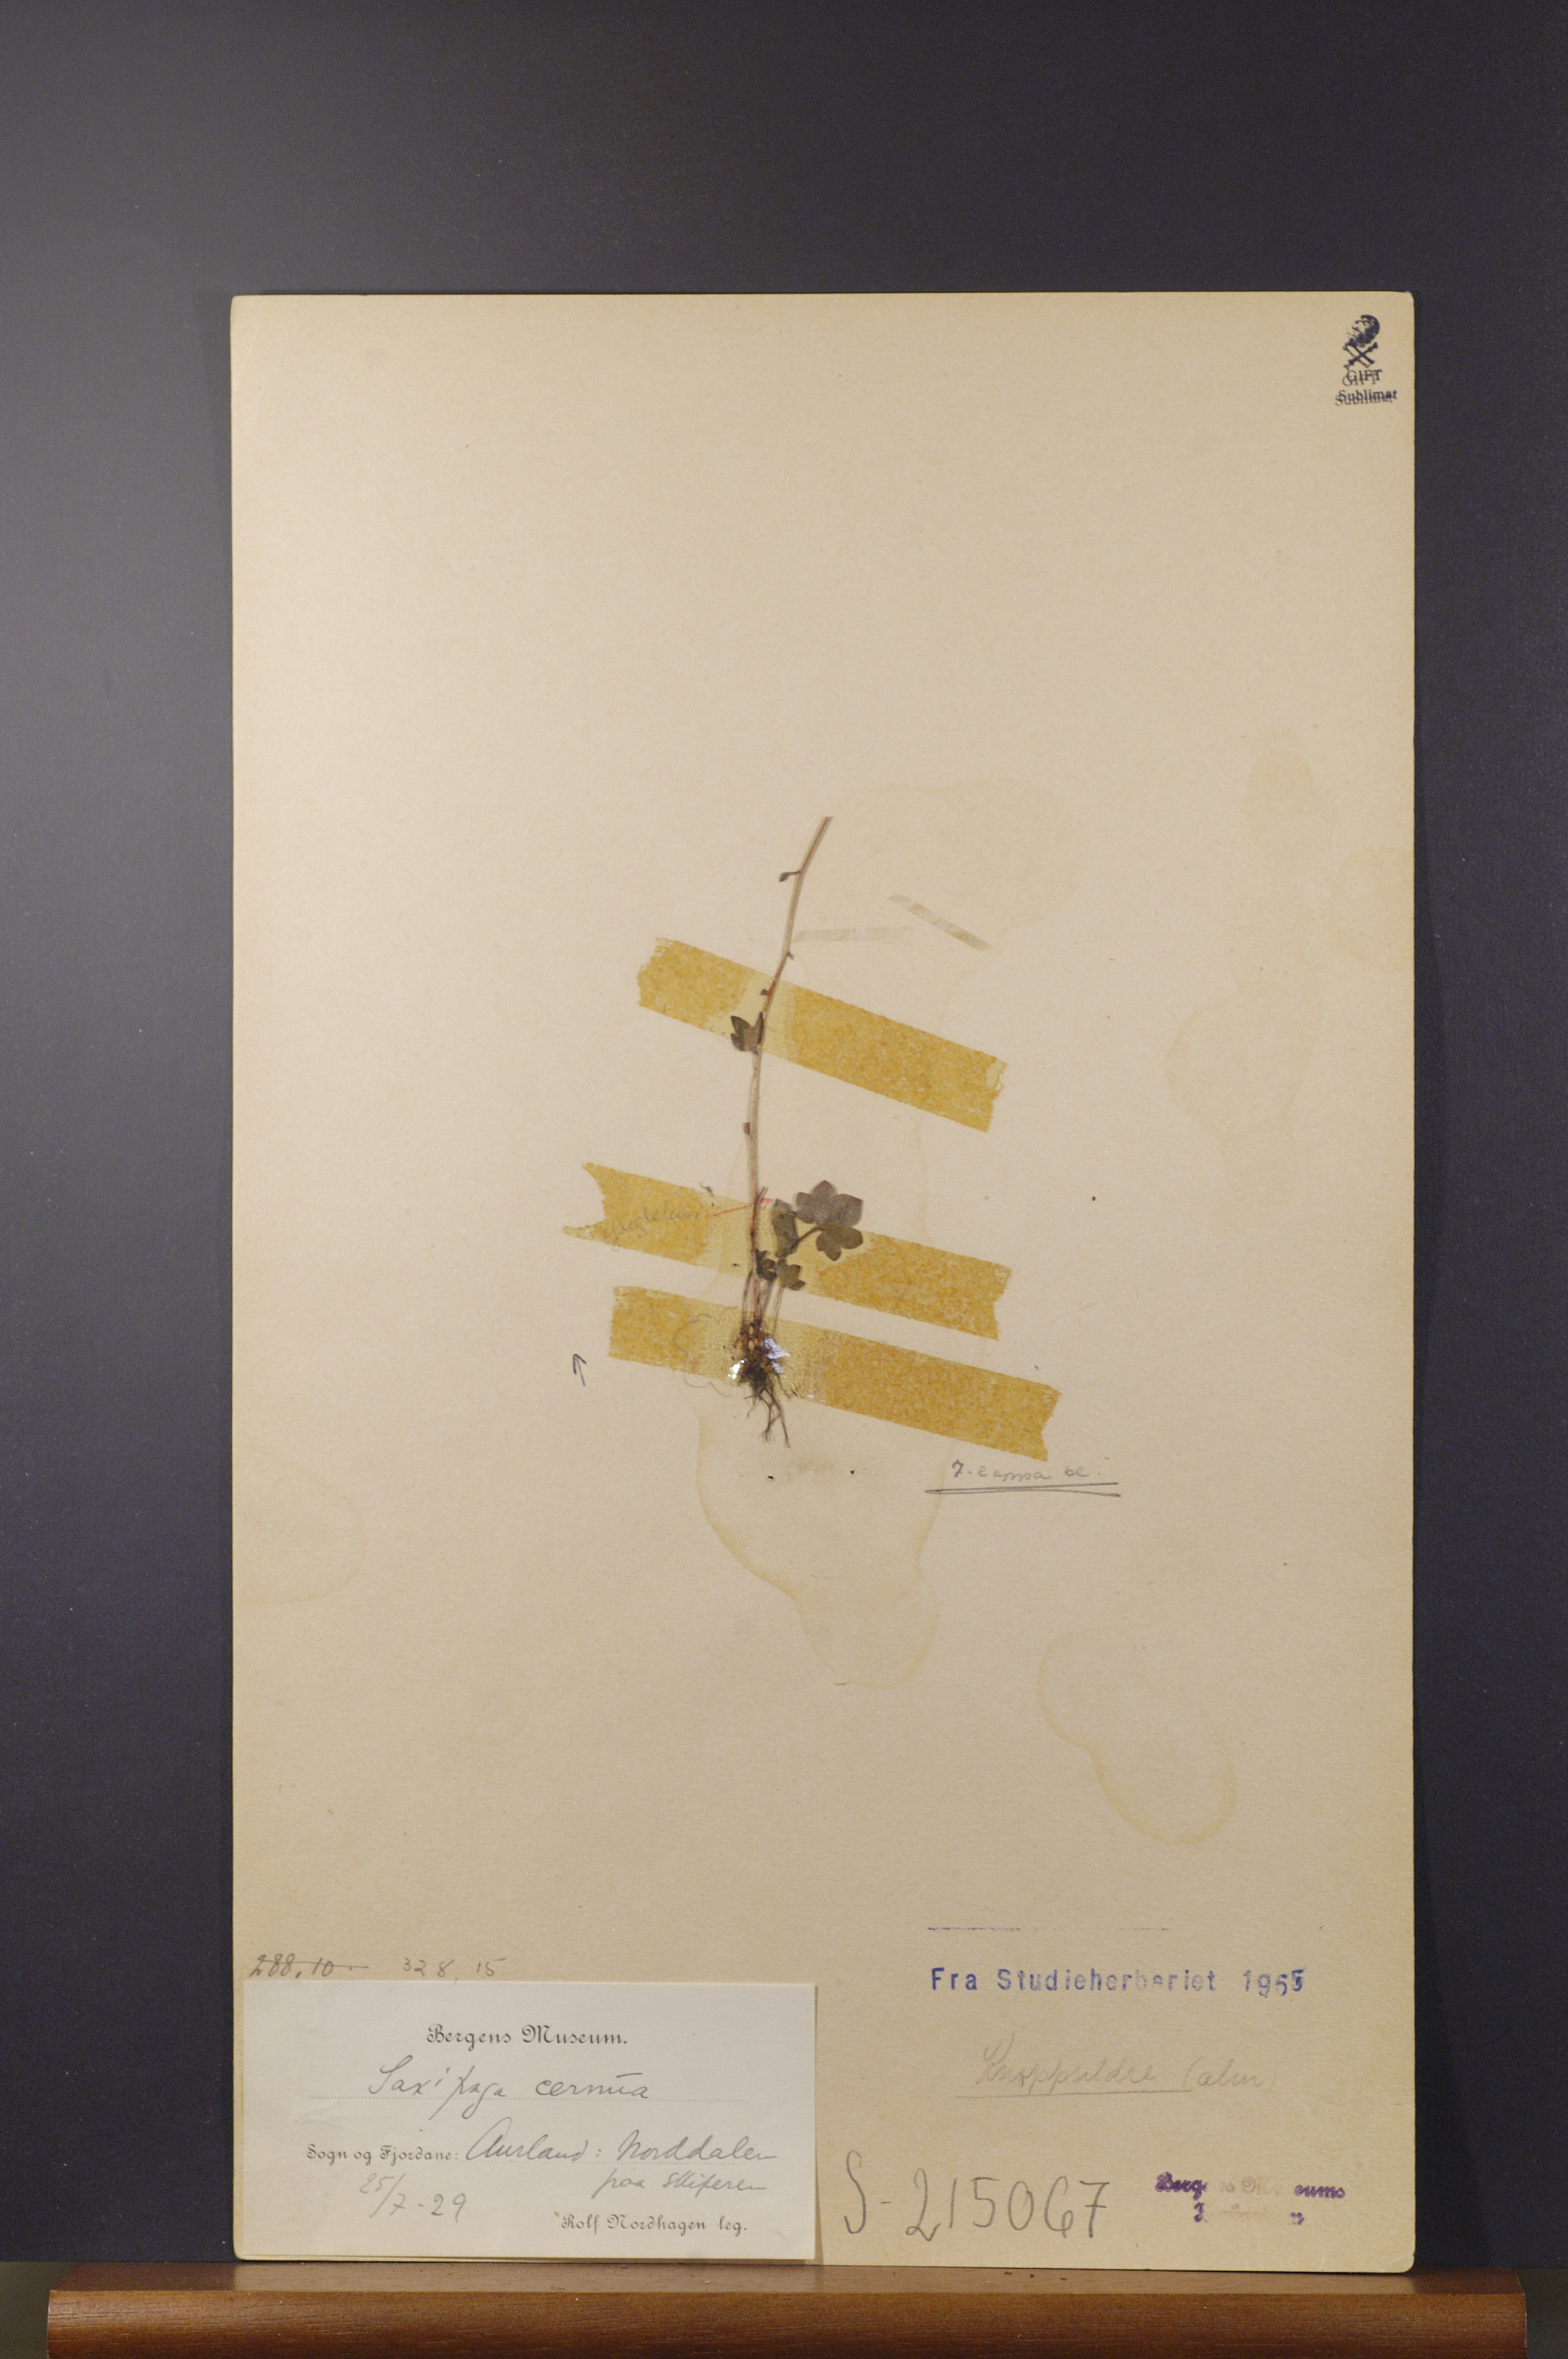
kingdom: Plantae
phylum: Tracheophyta
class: Magnoliopsida
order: Saxifragales
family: Saxifragaceae
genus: Saxifraga
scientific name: Saxifraga cernua
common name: Drooping saxifrage
